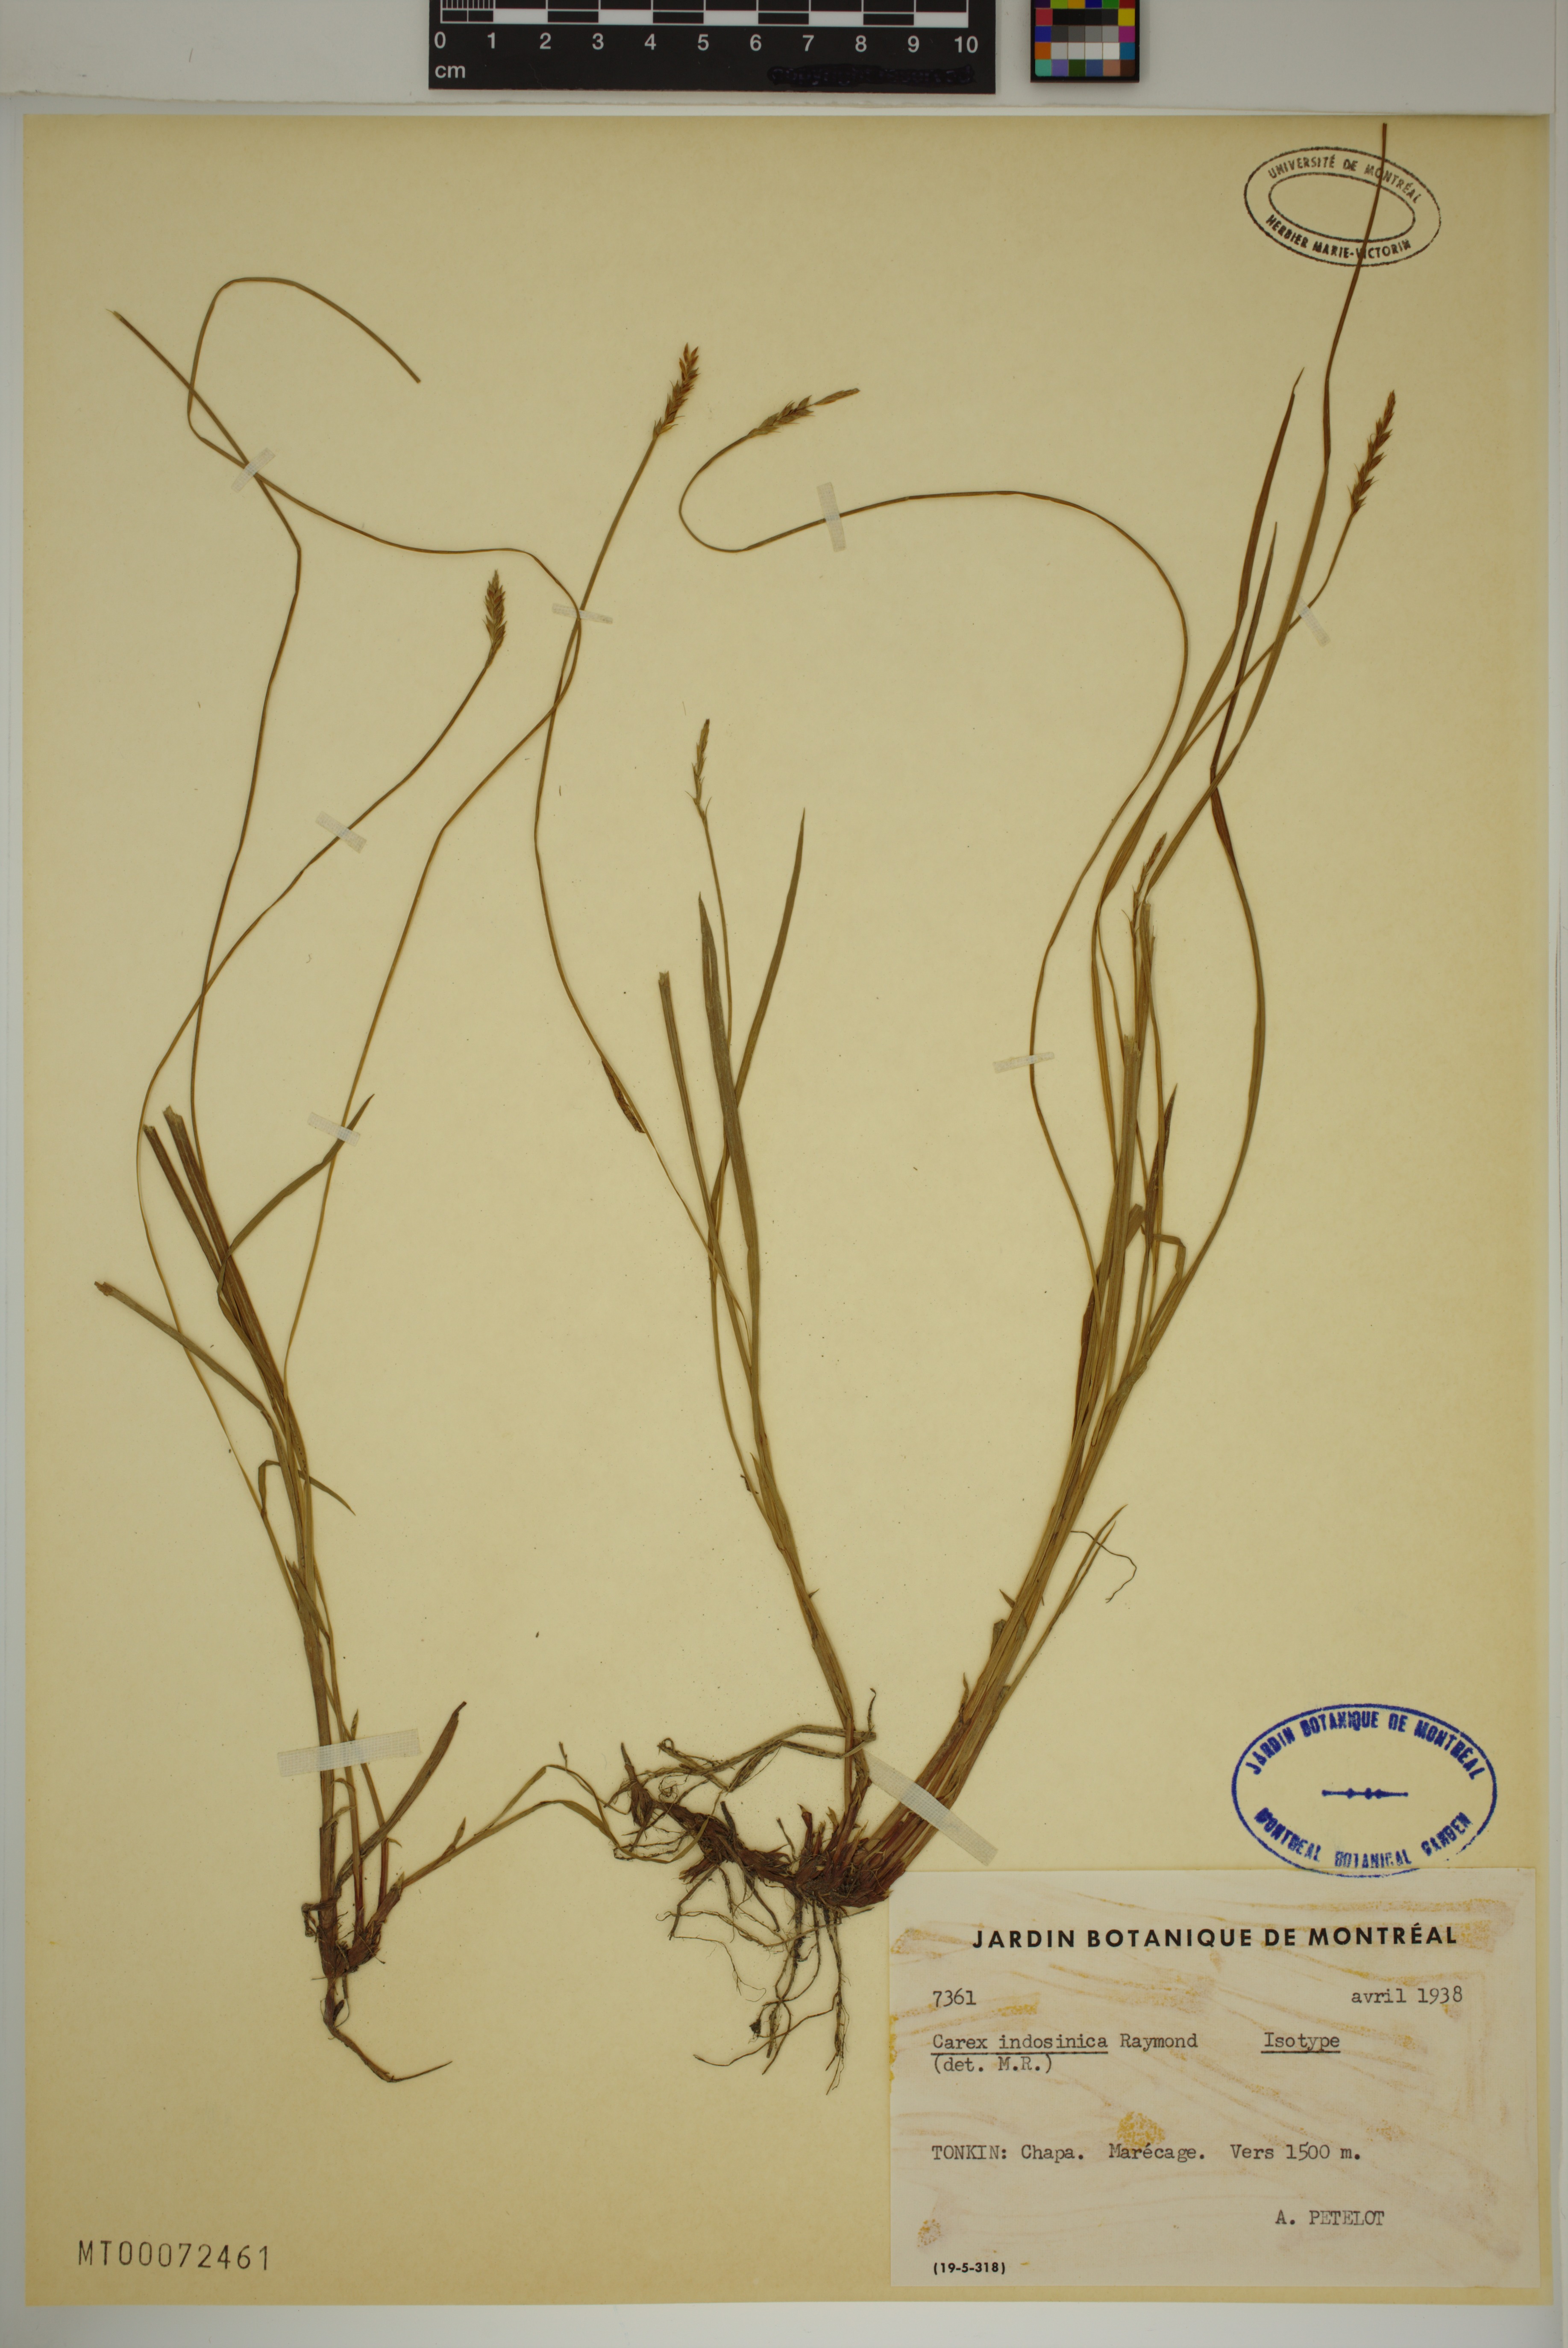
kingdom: Plantae
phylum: Tracheophyta
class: Liliopsida
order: Poales
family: Cyperaceae
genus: Carex
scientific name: Carex indosinica
